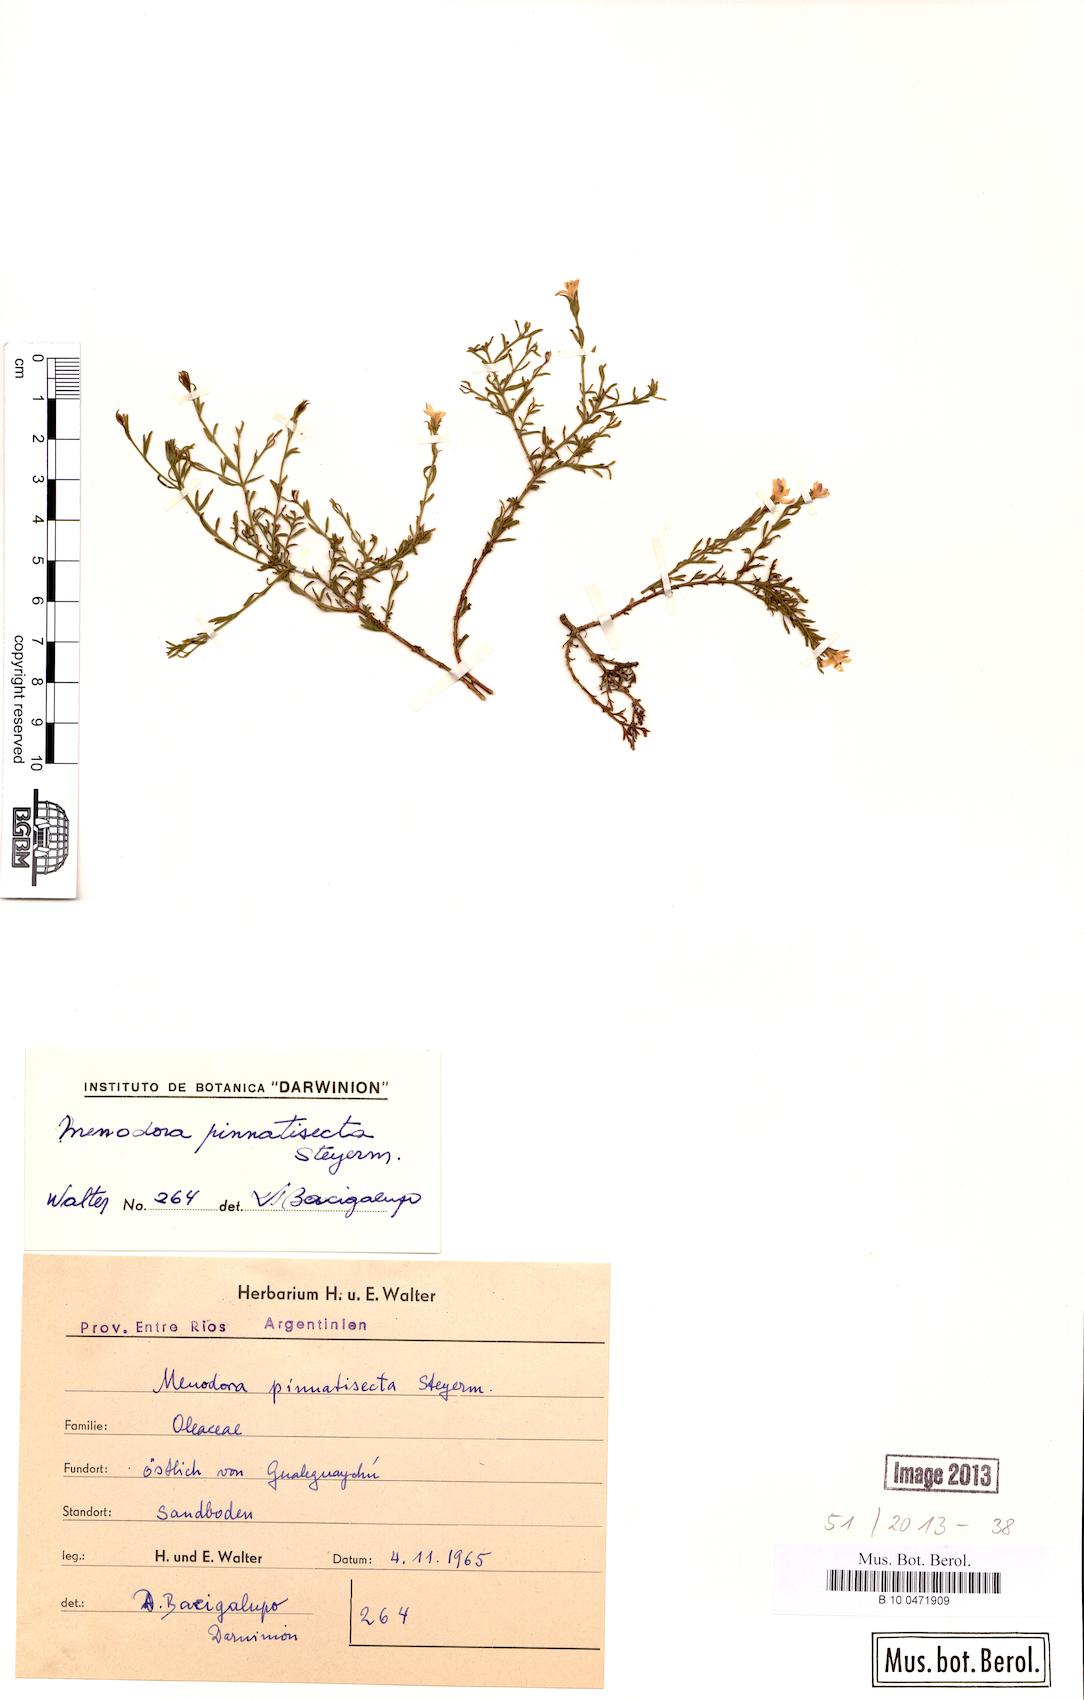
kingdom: Plantae
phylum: Tracheophyta
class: Magnoliopsida
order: Lamiales
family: Oleaceae
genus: Menodora
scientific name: Menodora integrifolia
